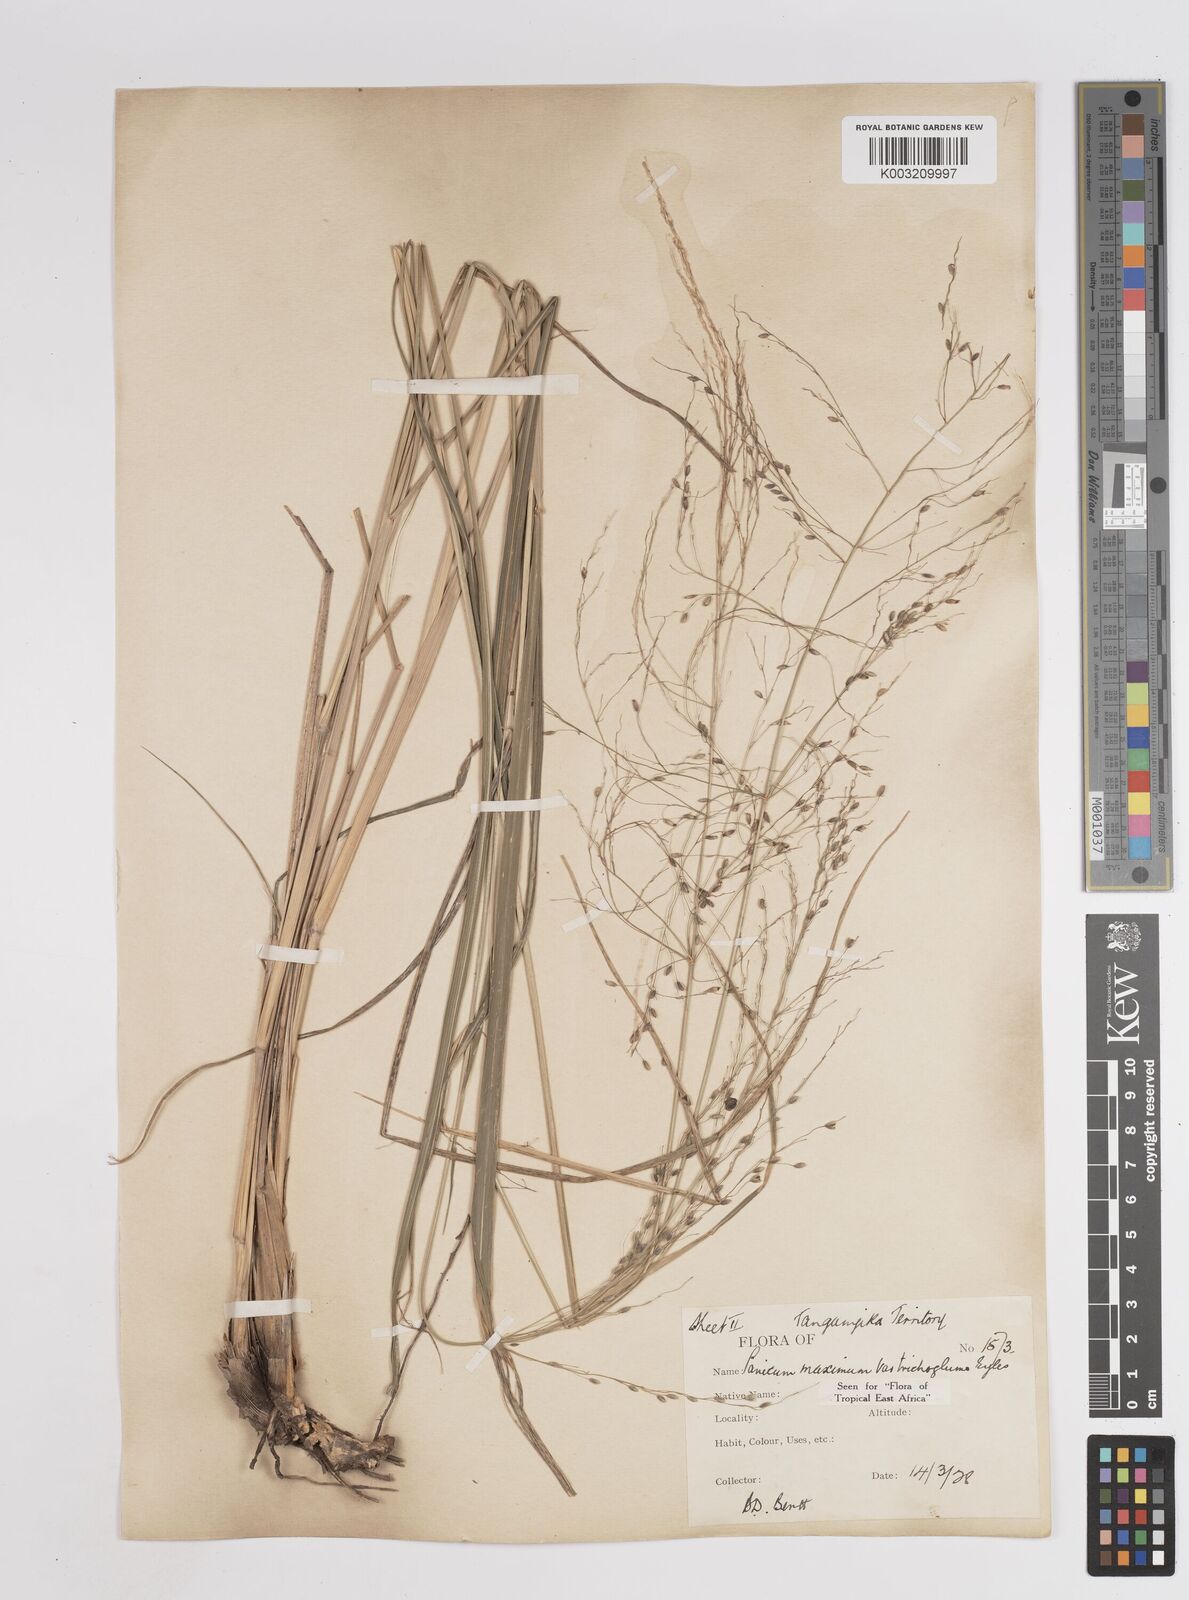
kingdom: Plantae
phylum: Tracheophyta
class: Liliopsida
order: Poales
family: Poaceae
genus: Megathyrsus
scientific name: Megathyrsus maximus
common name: Guineagrass
